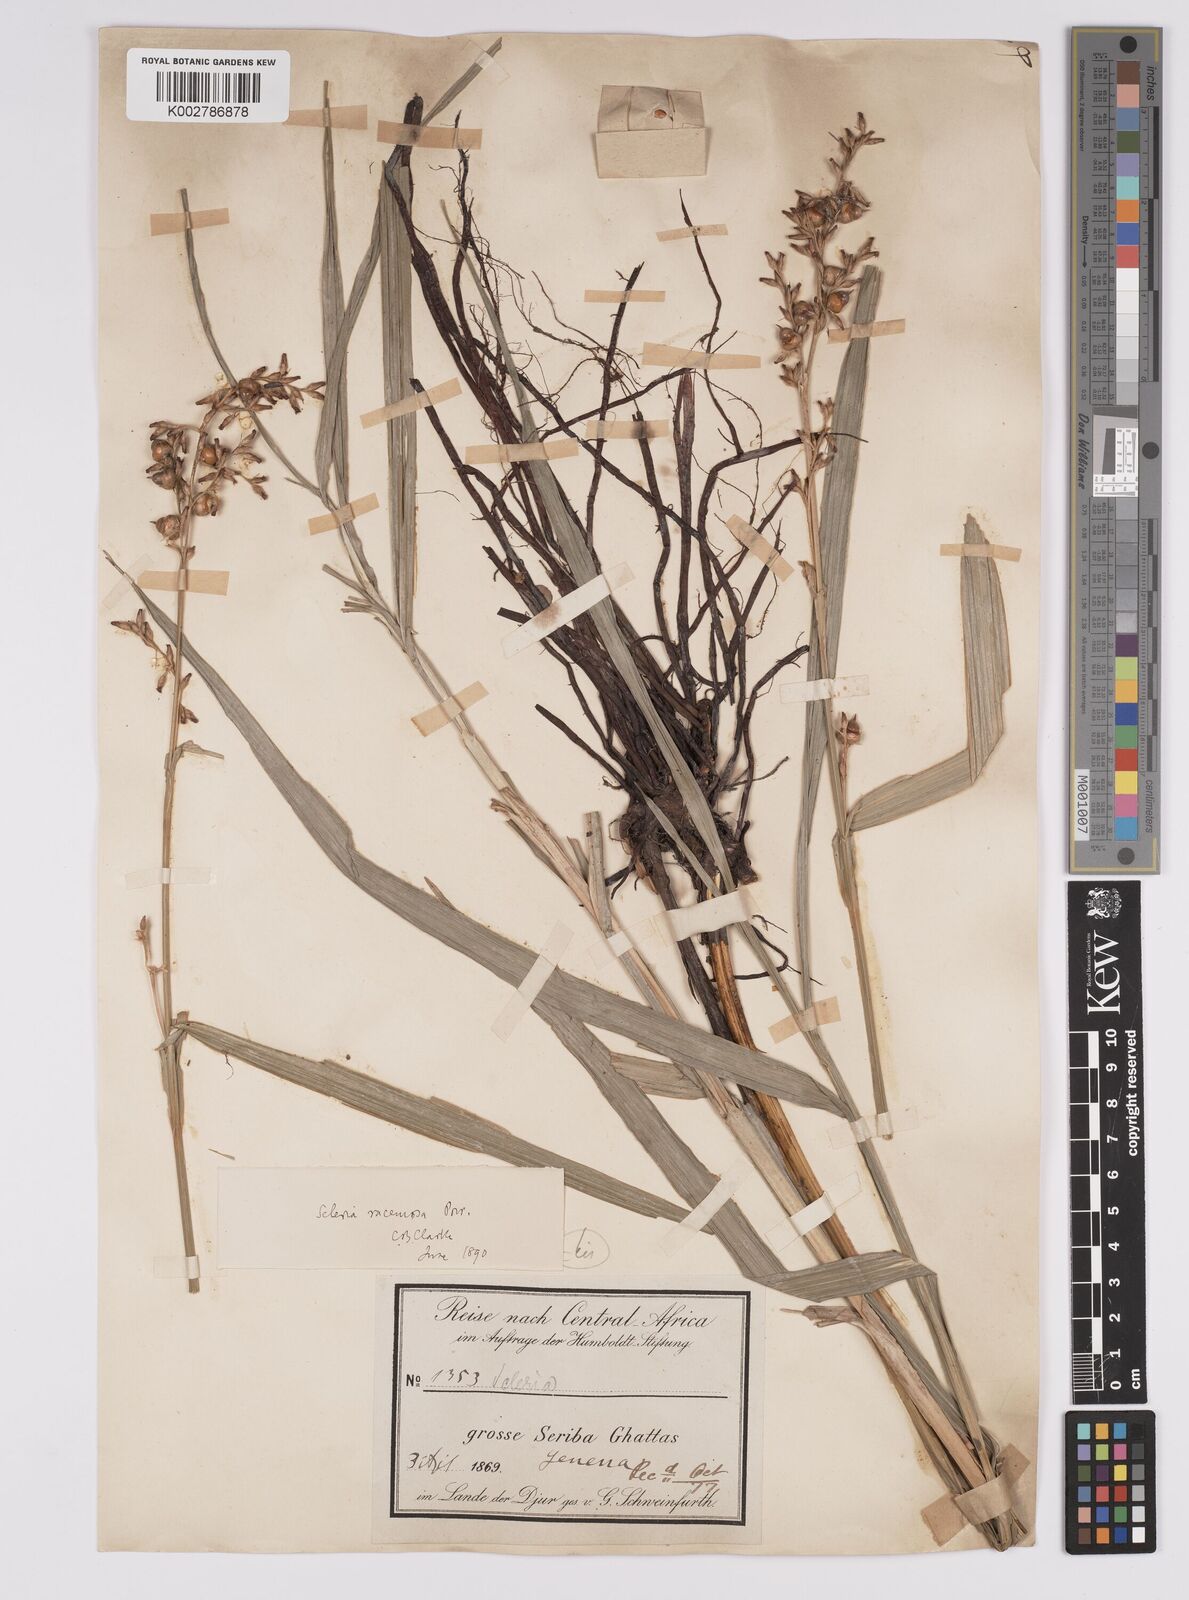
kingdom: Plantae
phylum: Tracheophyta
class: Liliopsida
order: Poales
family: Cyperaceae
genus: Scleria
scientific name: Scleria racemosa
